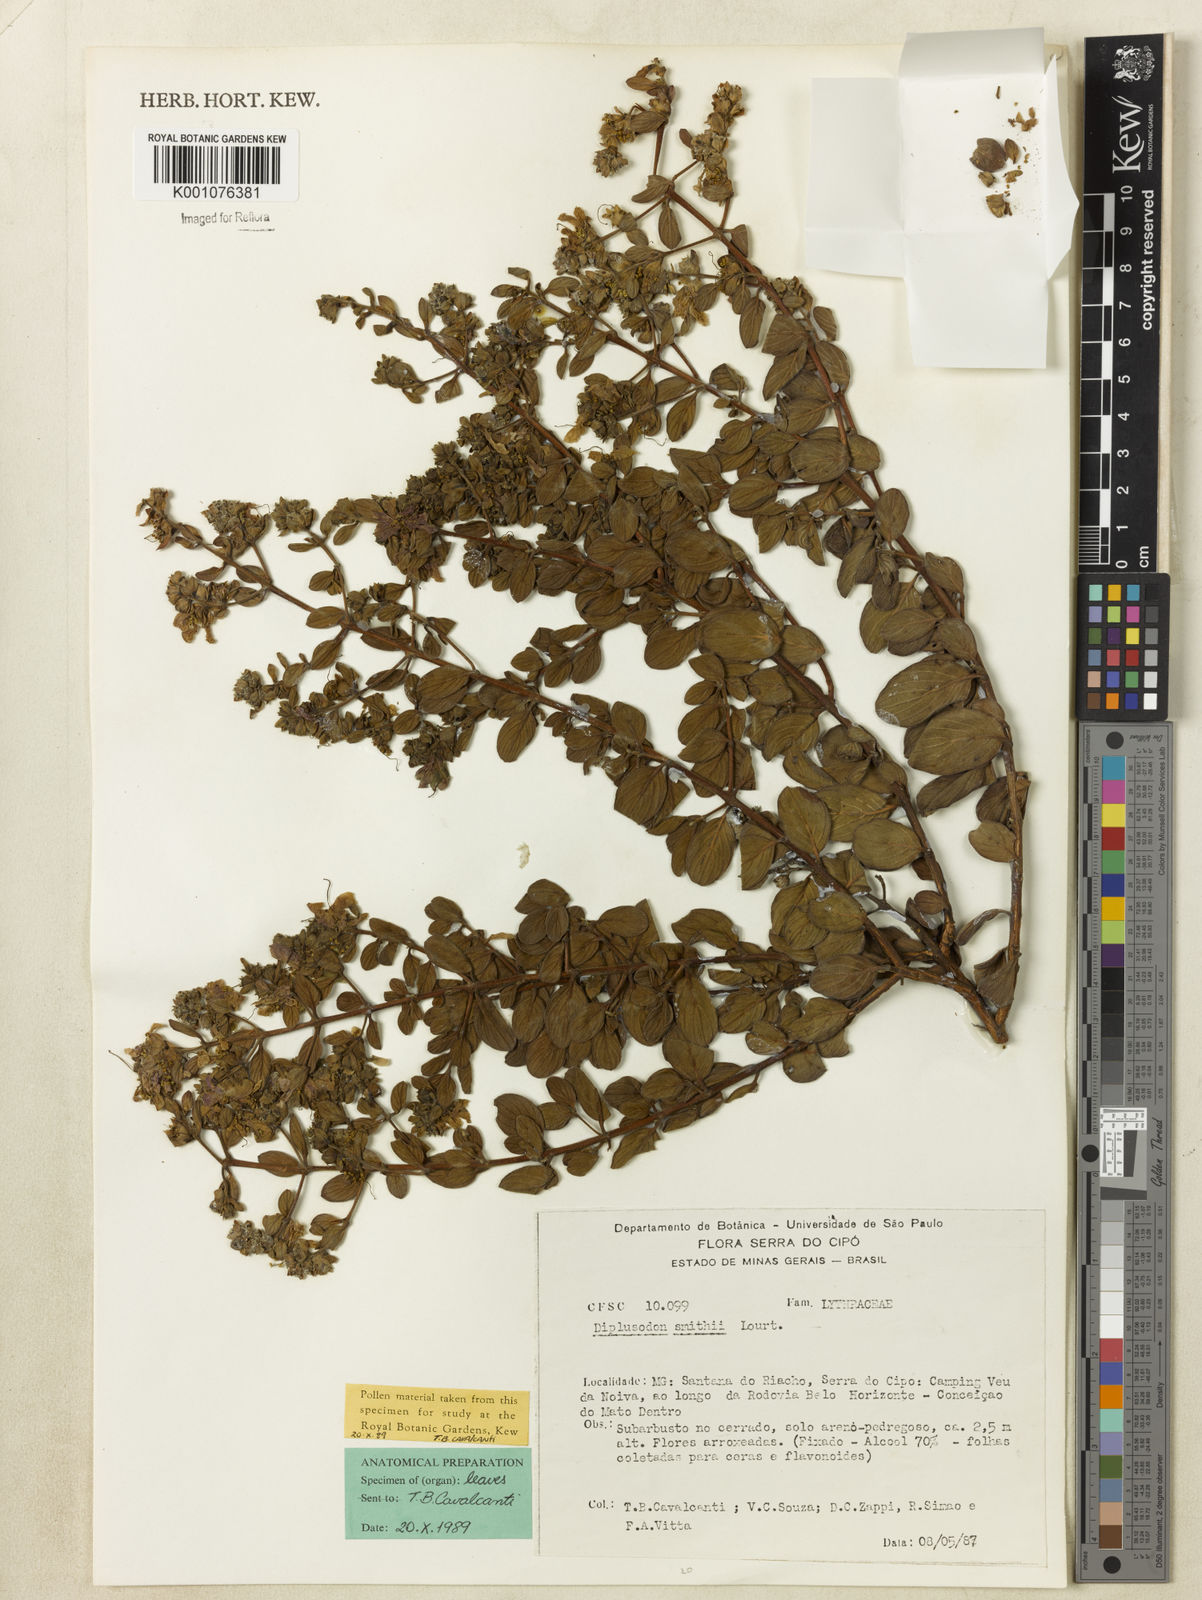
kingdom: Plantae
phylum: Tracheophyta
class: Magnoliopsida
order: Myrtales
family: Lythraceae
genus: Diplusodon
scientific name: Diplusodon hirsutus
